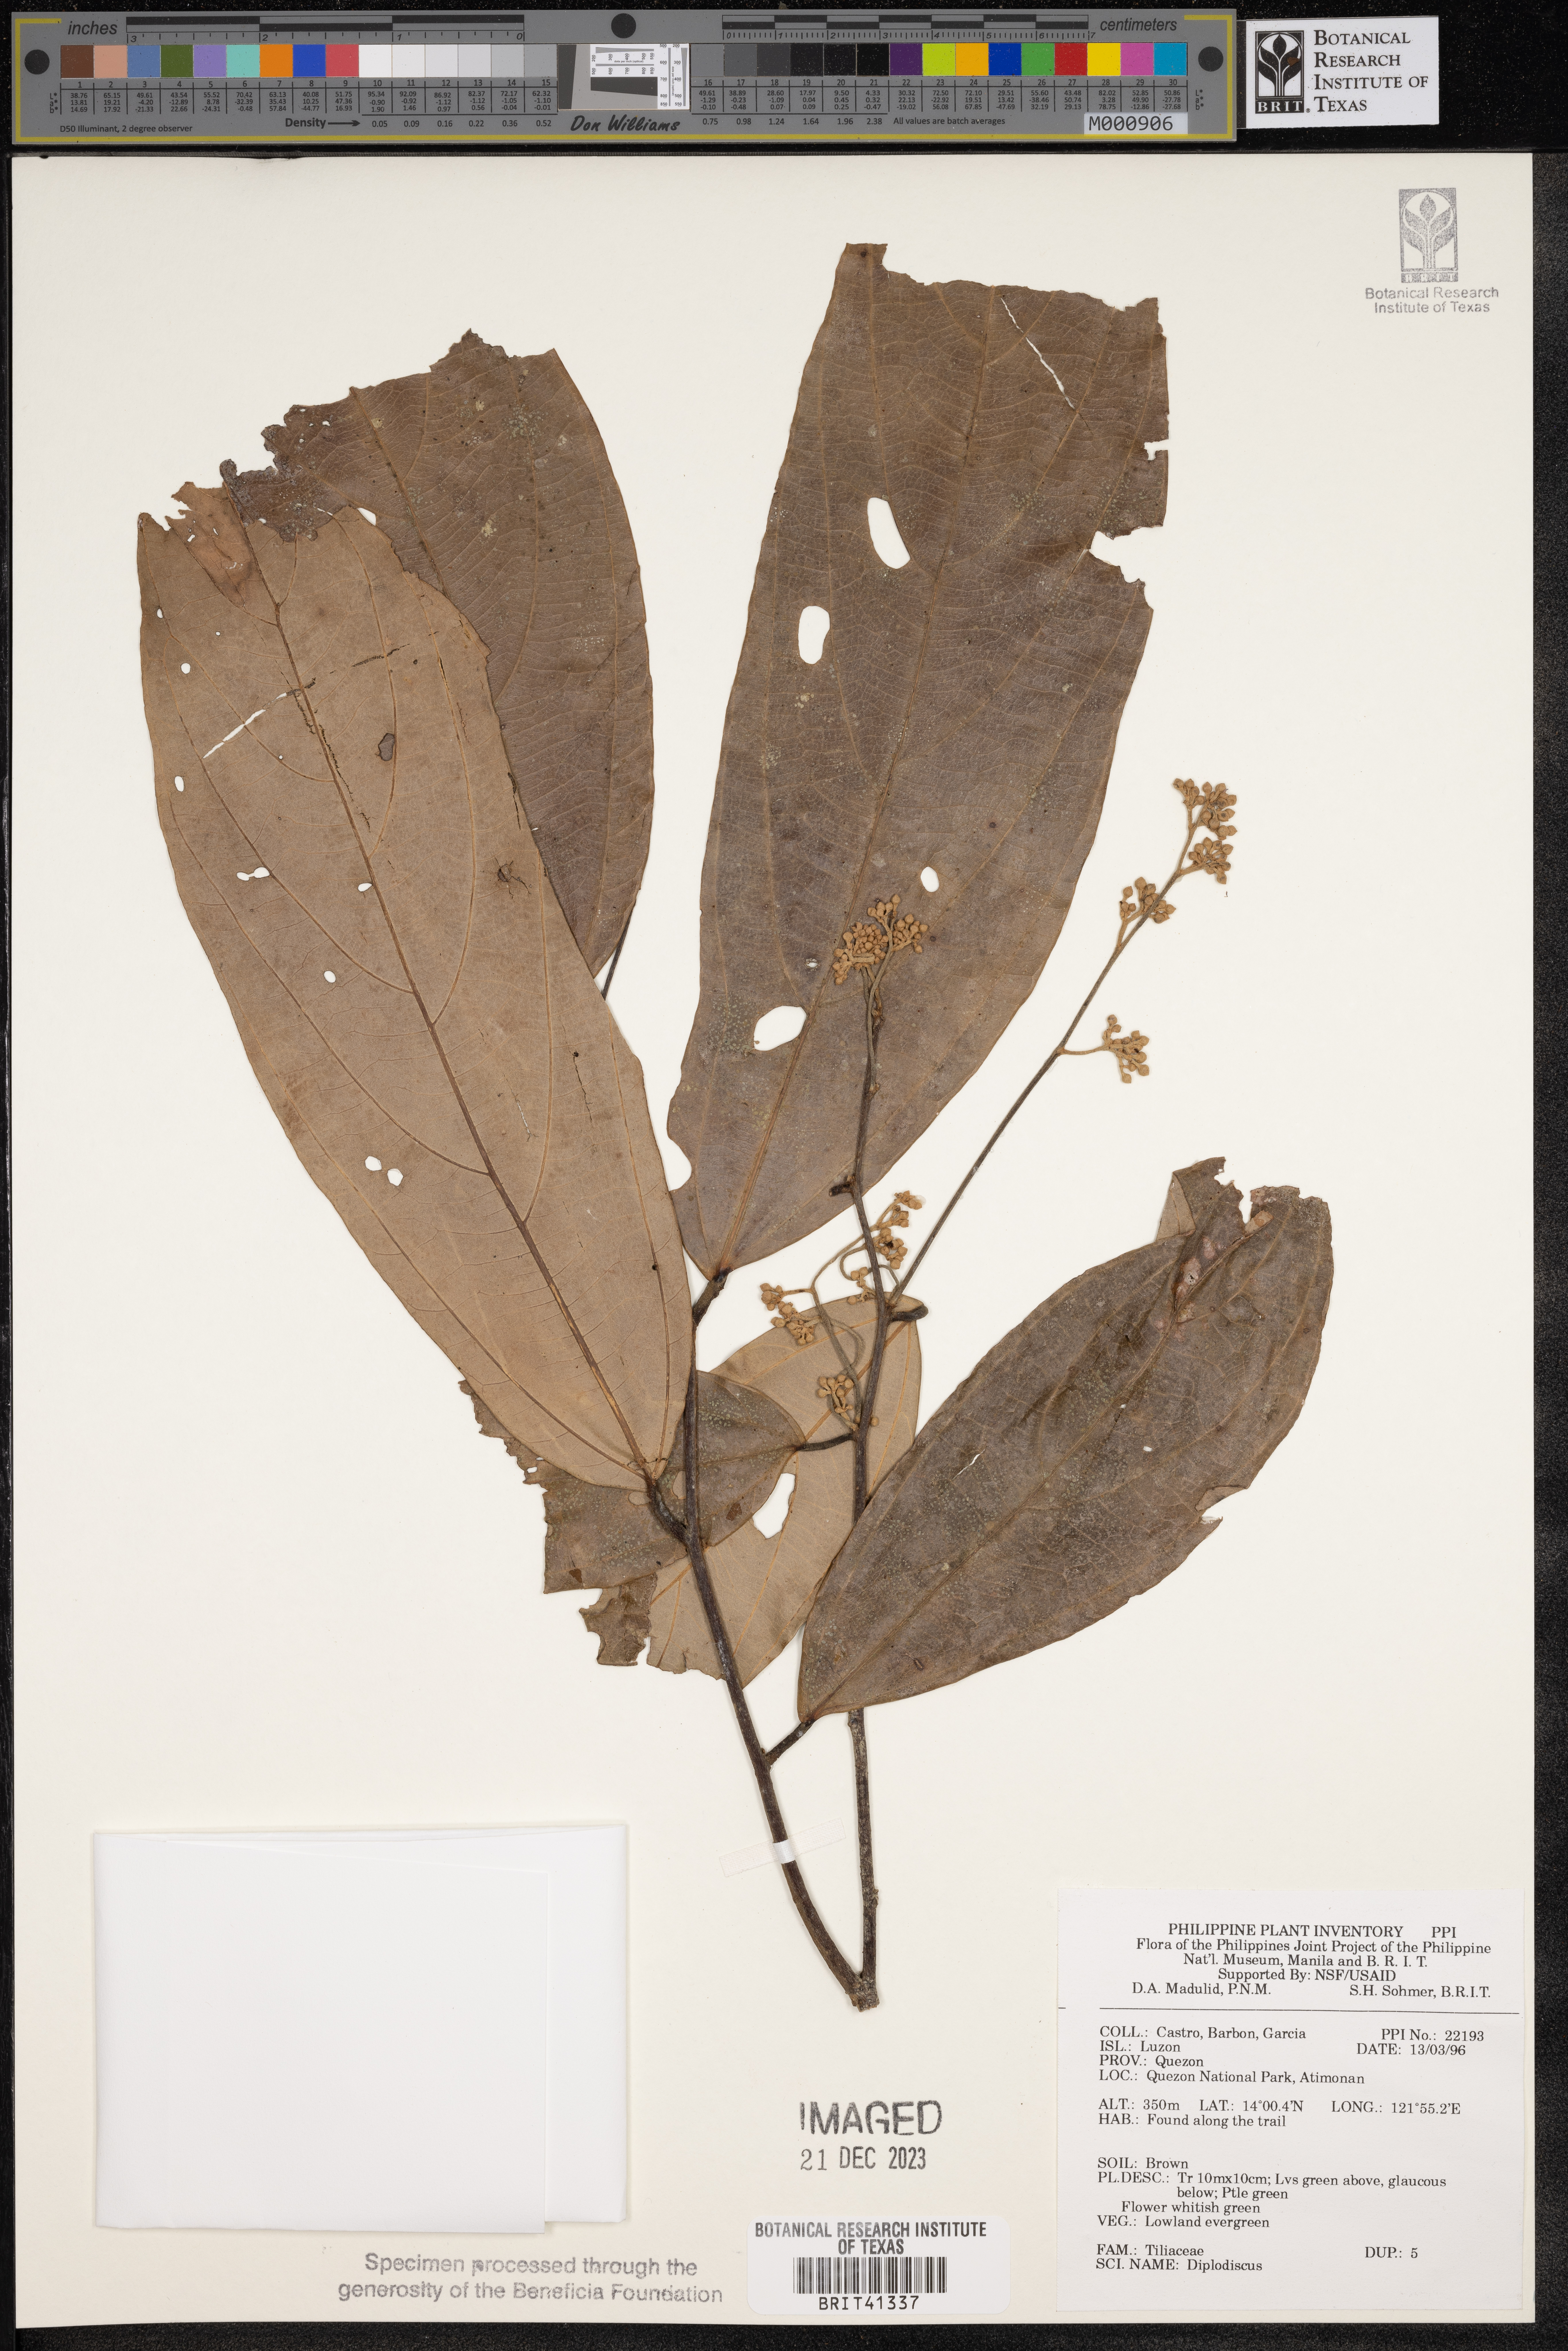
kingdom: Plantae
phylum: Tracheophyta
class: Magnoliopsida
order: Malvales
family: Malvaceae
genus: Diplodiscus
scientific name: Diplodiscus
